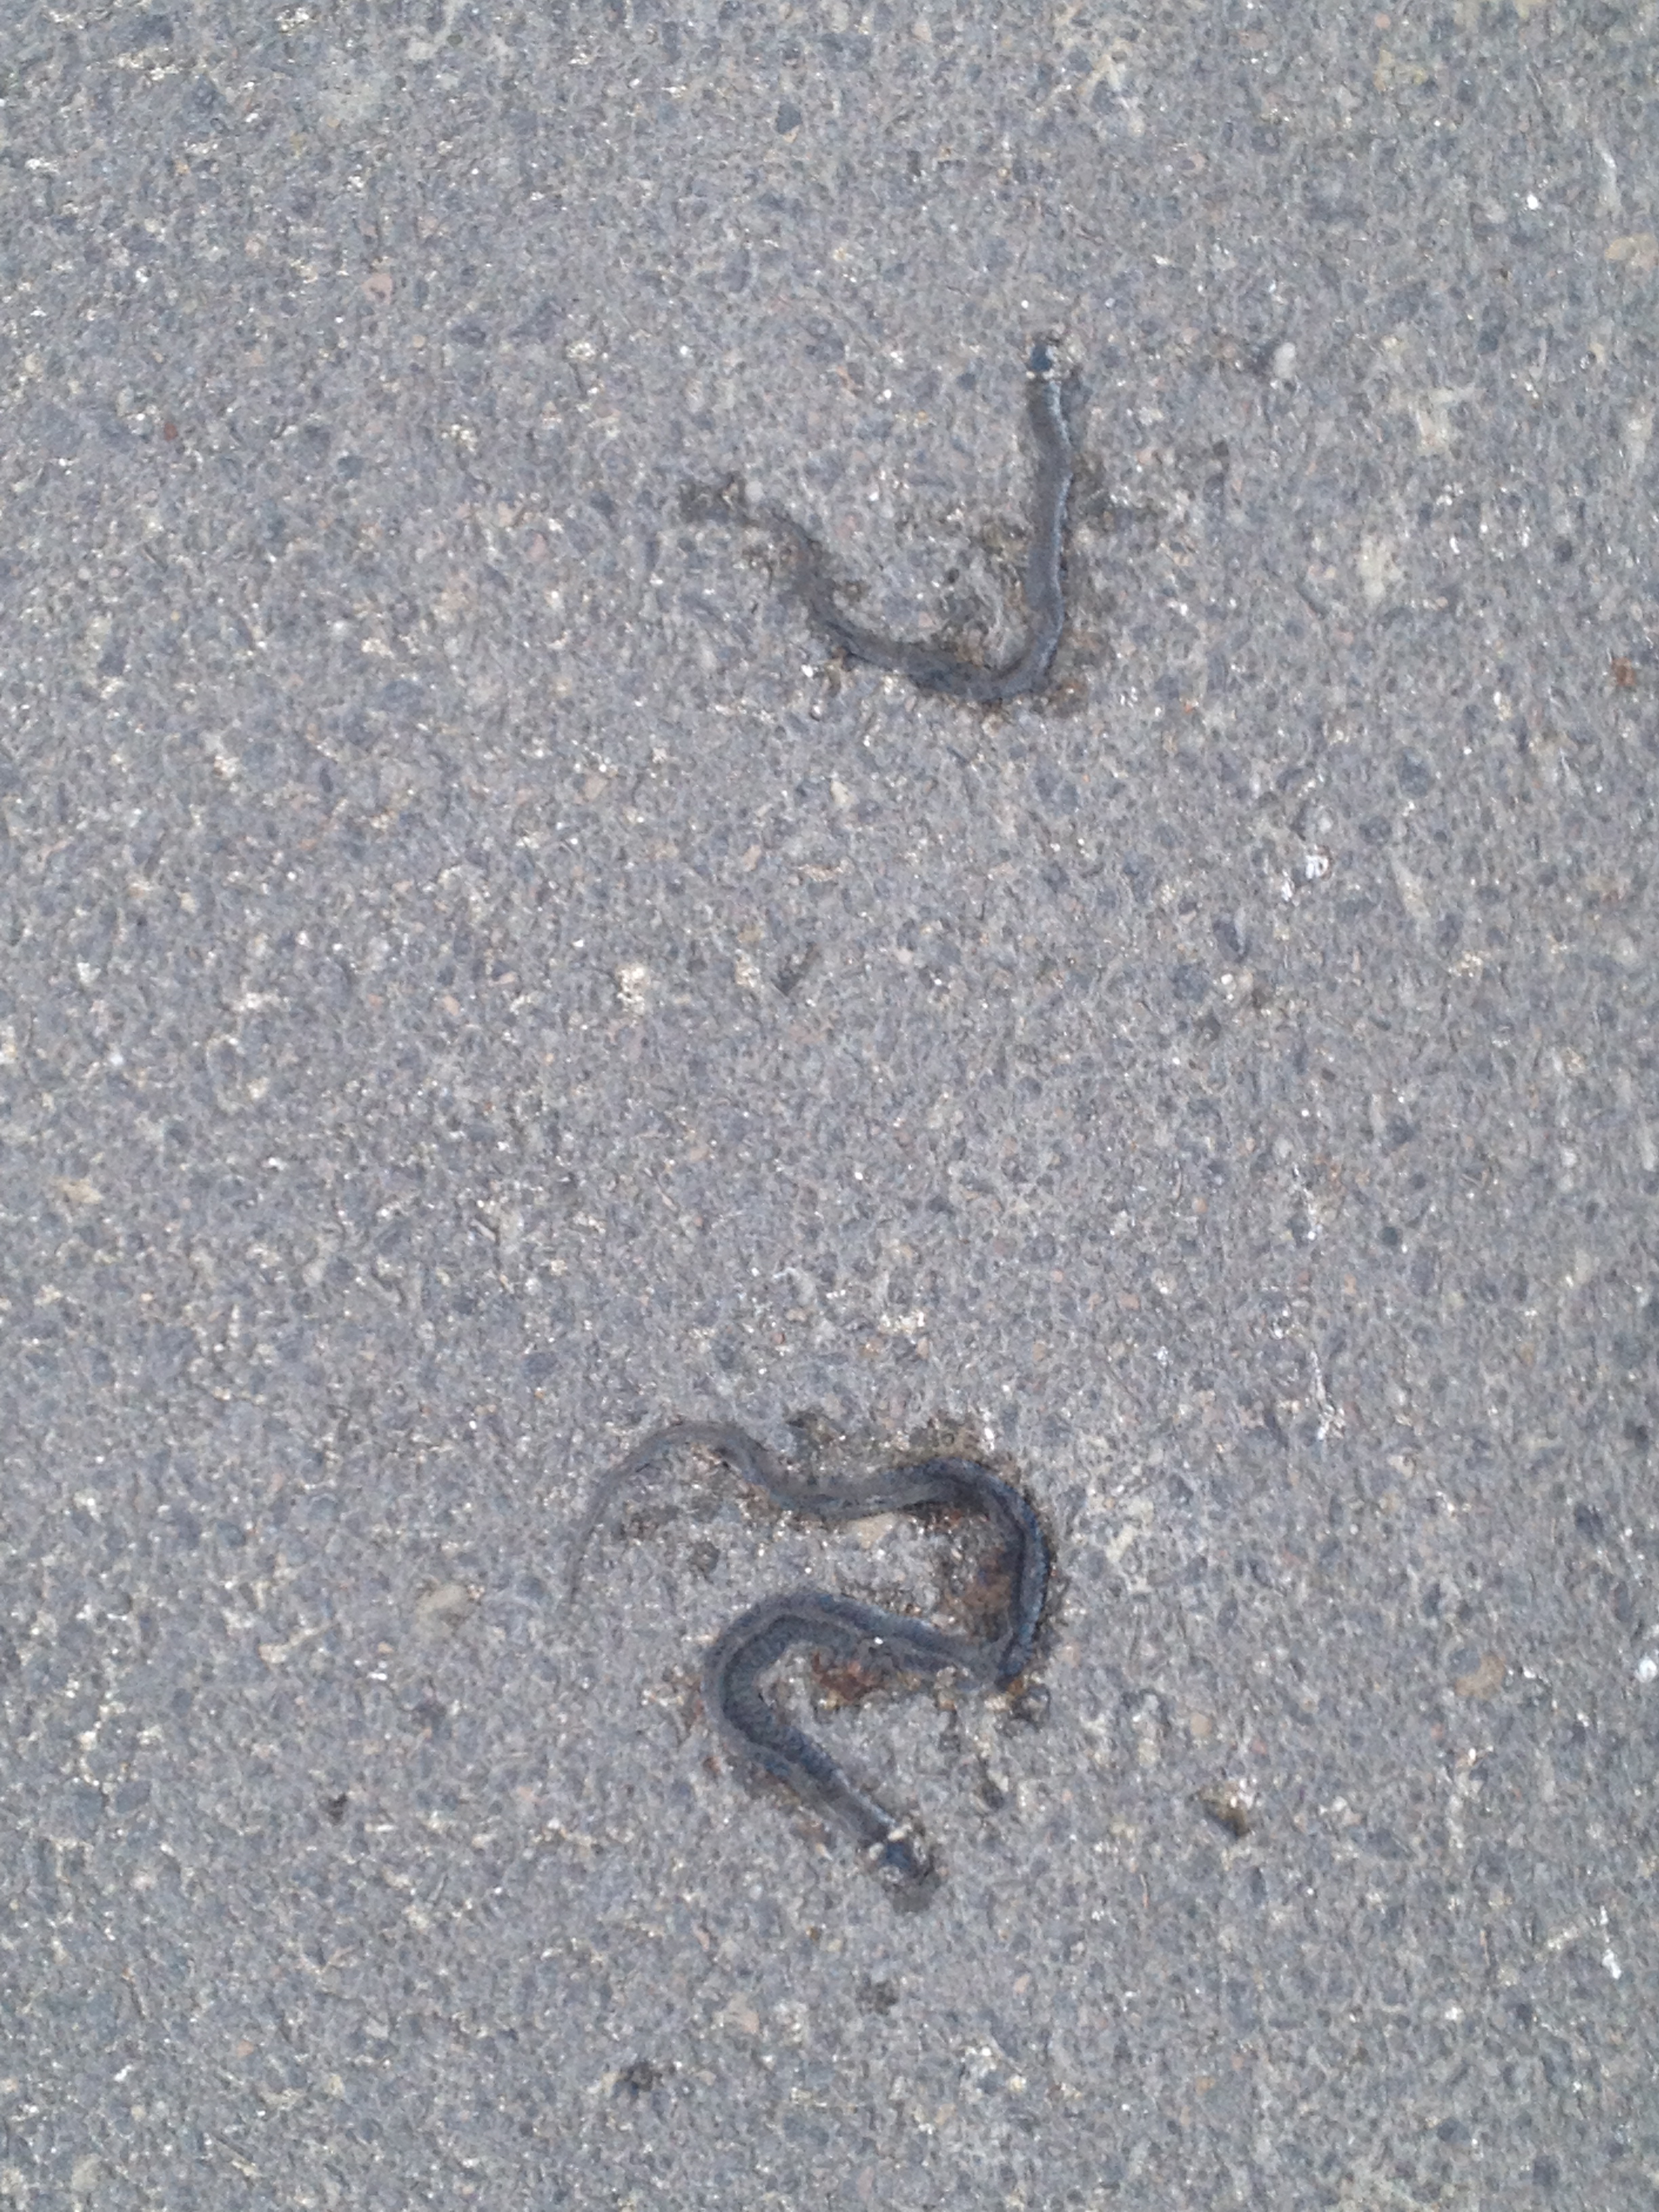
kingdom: Animalia
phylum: Chordata
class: Squamata
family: Colubridae
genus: Natrix
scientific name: Natrix natrix
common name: Grass snake
